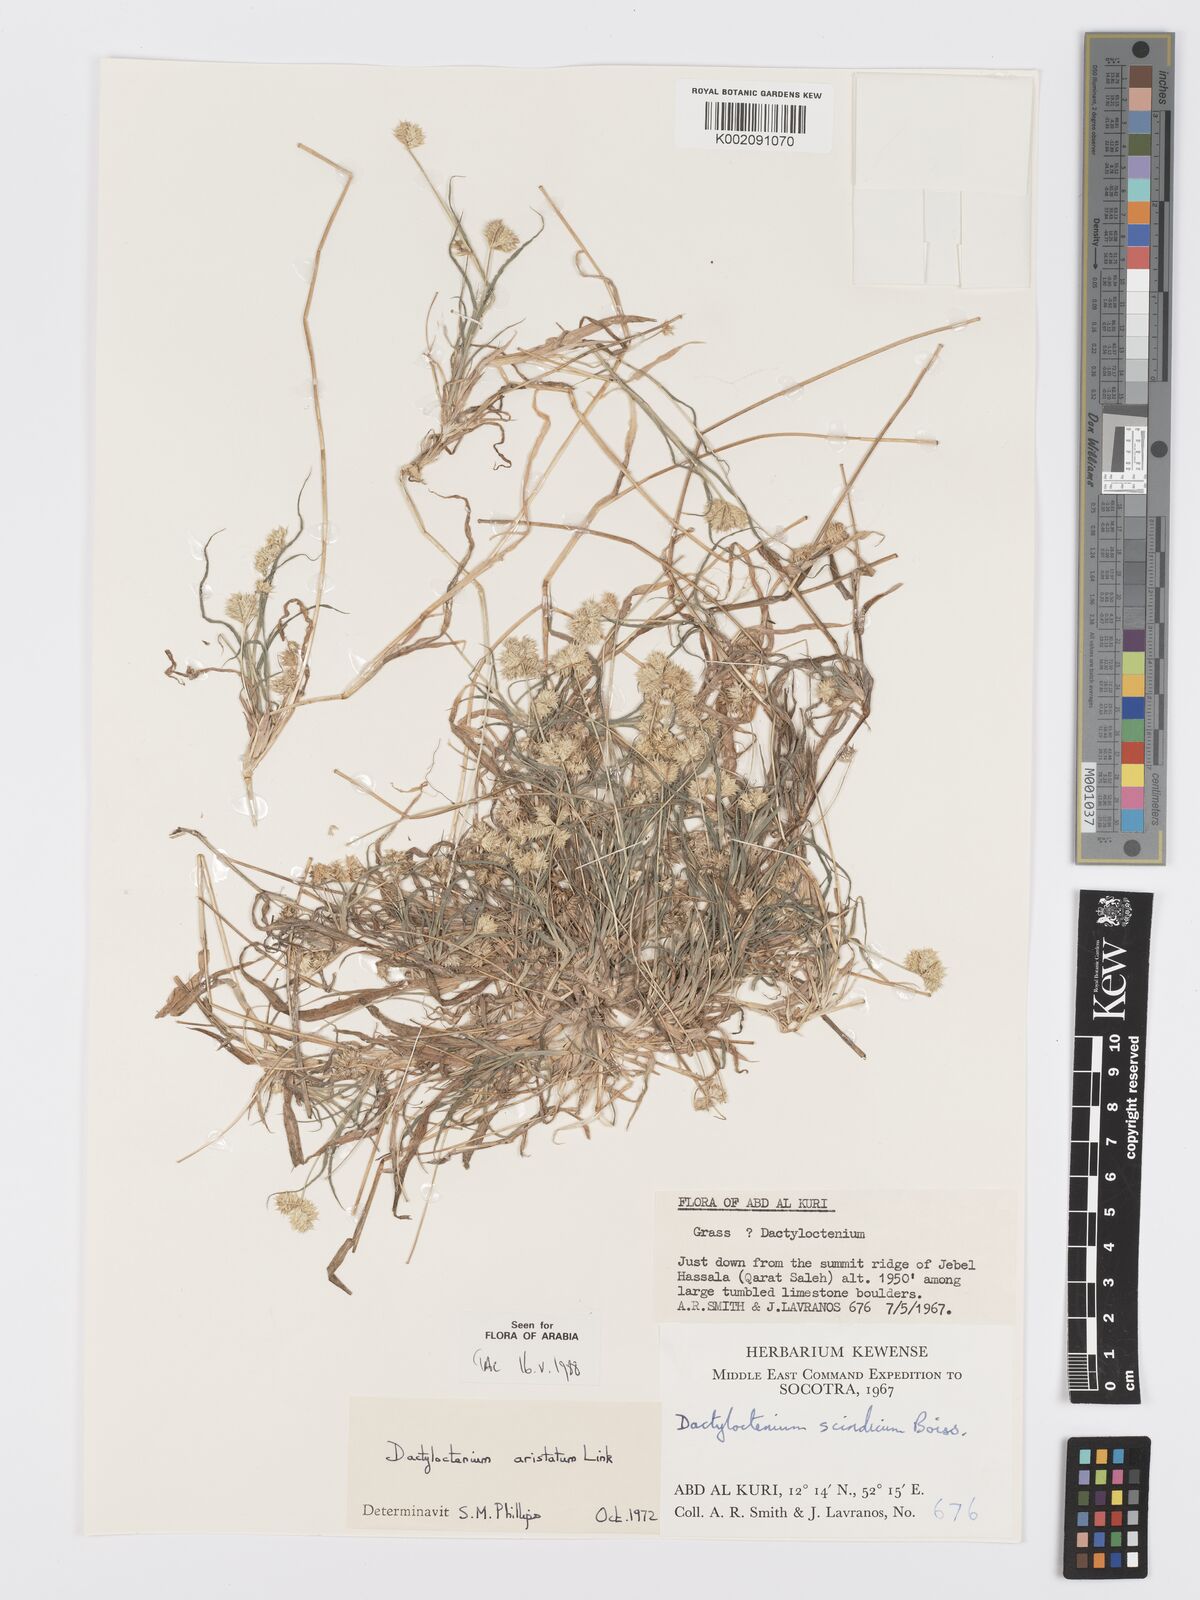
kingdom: Plantae
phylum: Tracheophyta
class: Liliopsida
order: Poales
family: Poaceae
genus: Dactyloctenium
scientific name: Dactyloctenium aristatum
